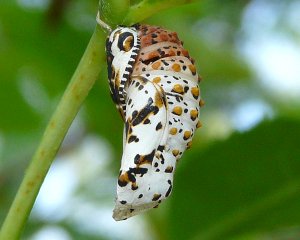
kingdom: Animalia
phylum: Arthropoda
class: Insecta
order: Lepidoptera
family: Nymphalidae
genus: Euphydryas
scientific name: Euphydryas phaeton
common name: Baltimore Checkerspot
